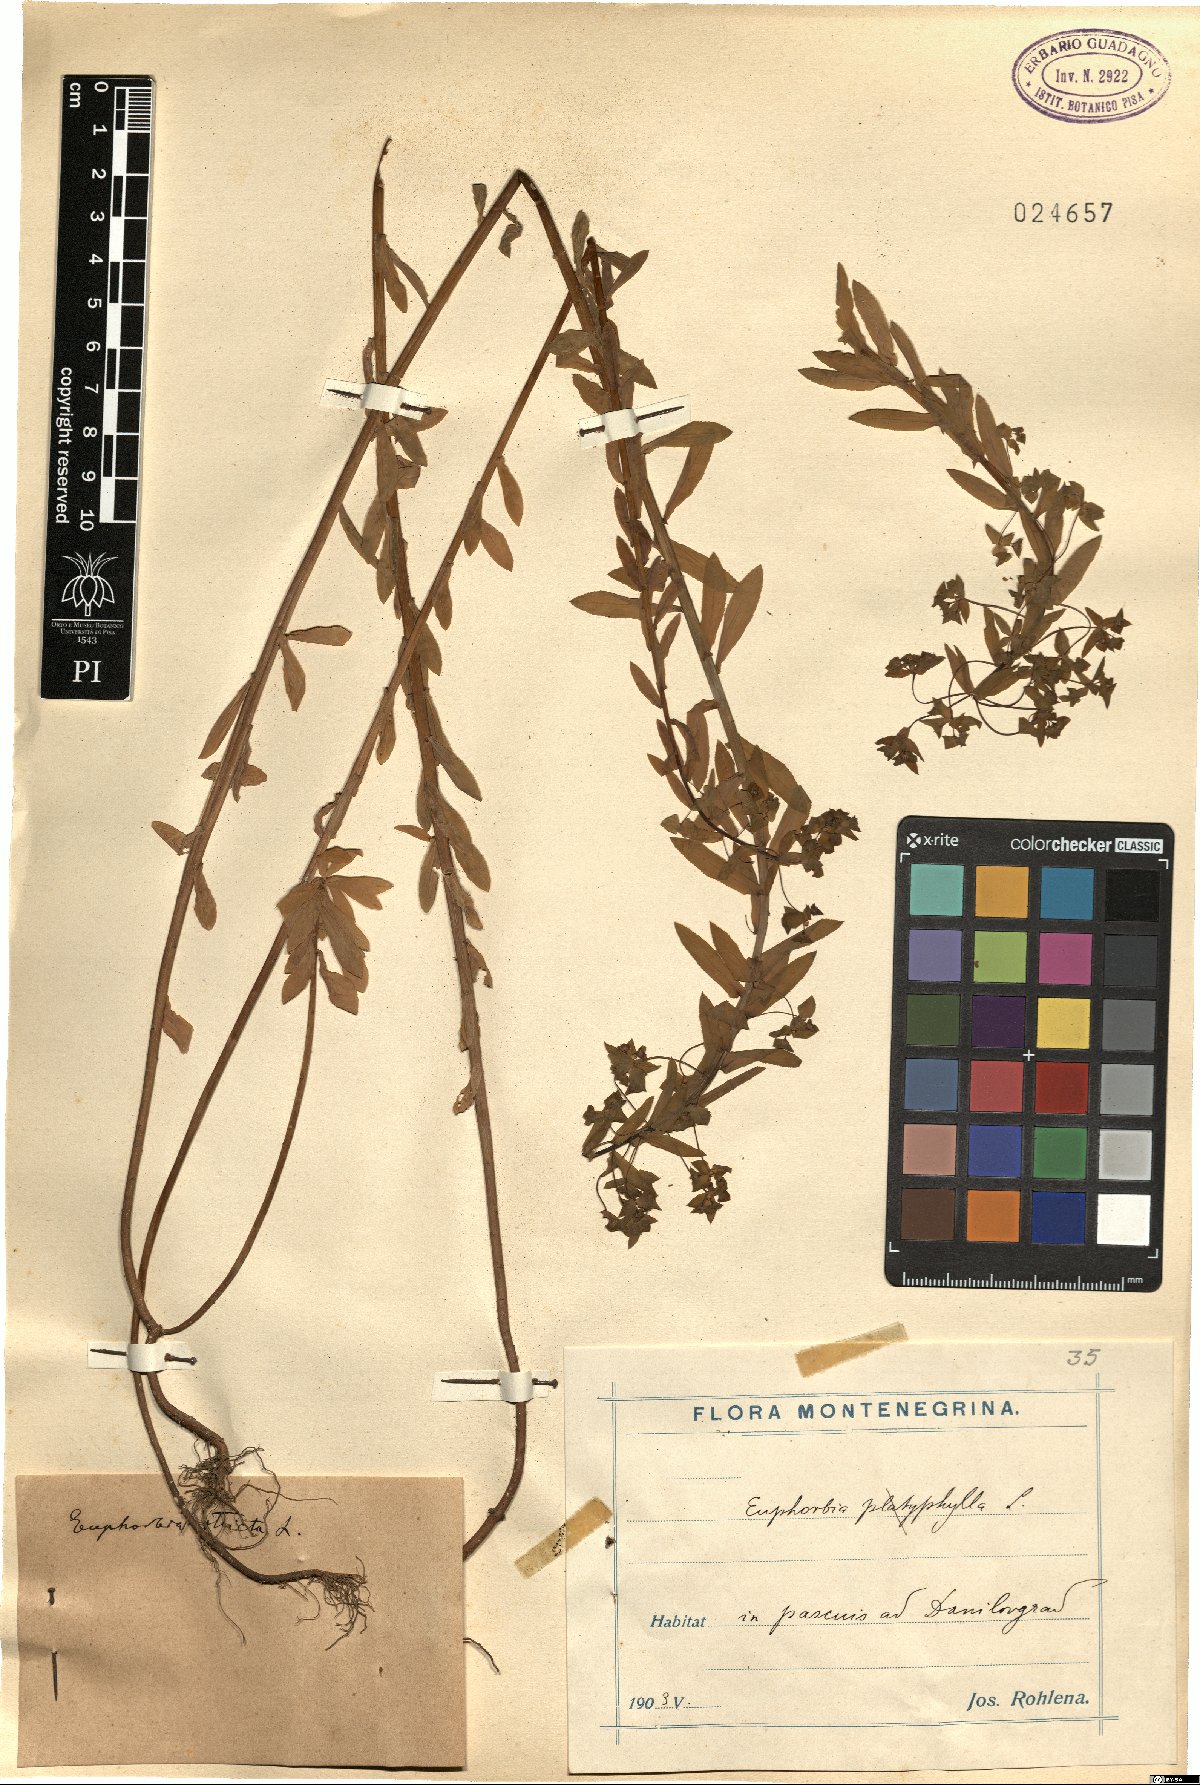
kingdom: Plantae
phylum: Tracheophyta
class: Magnoliopsida
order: Malpighiales
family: Euphorbiaceae
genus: Euphorbia
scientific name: Euphorbia stricta
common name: Upright spurge
